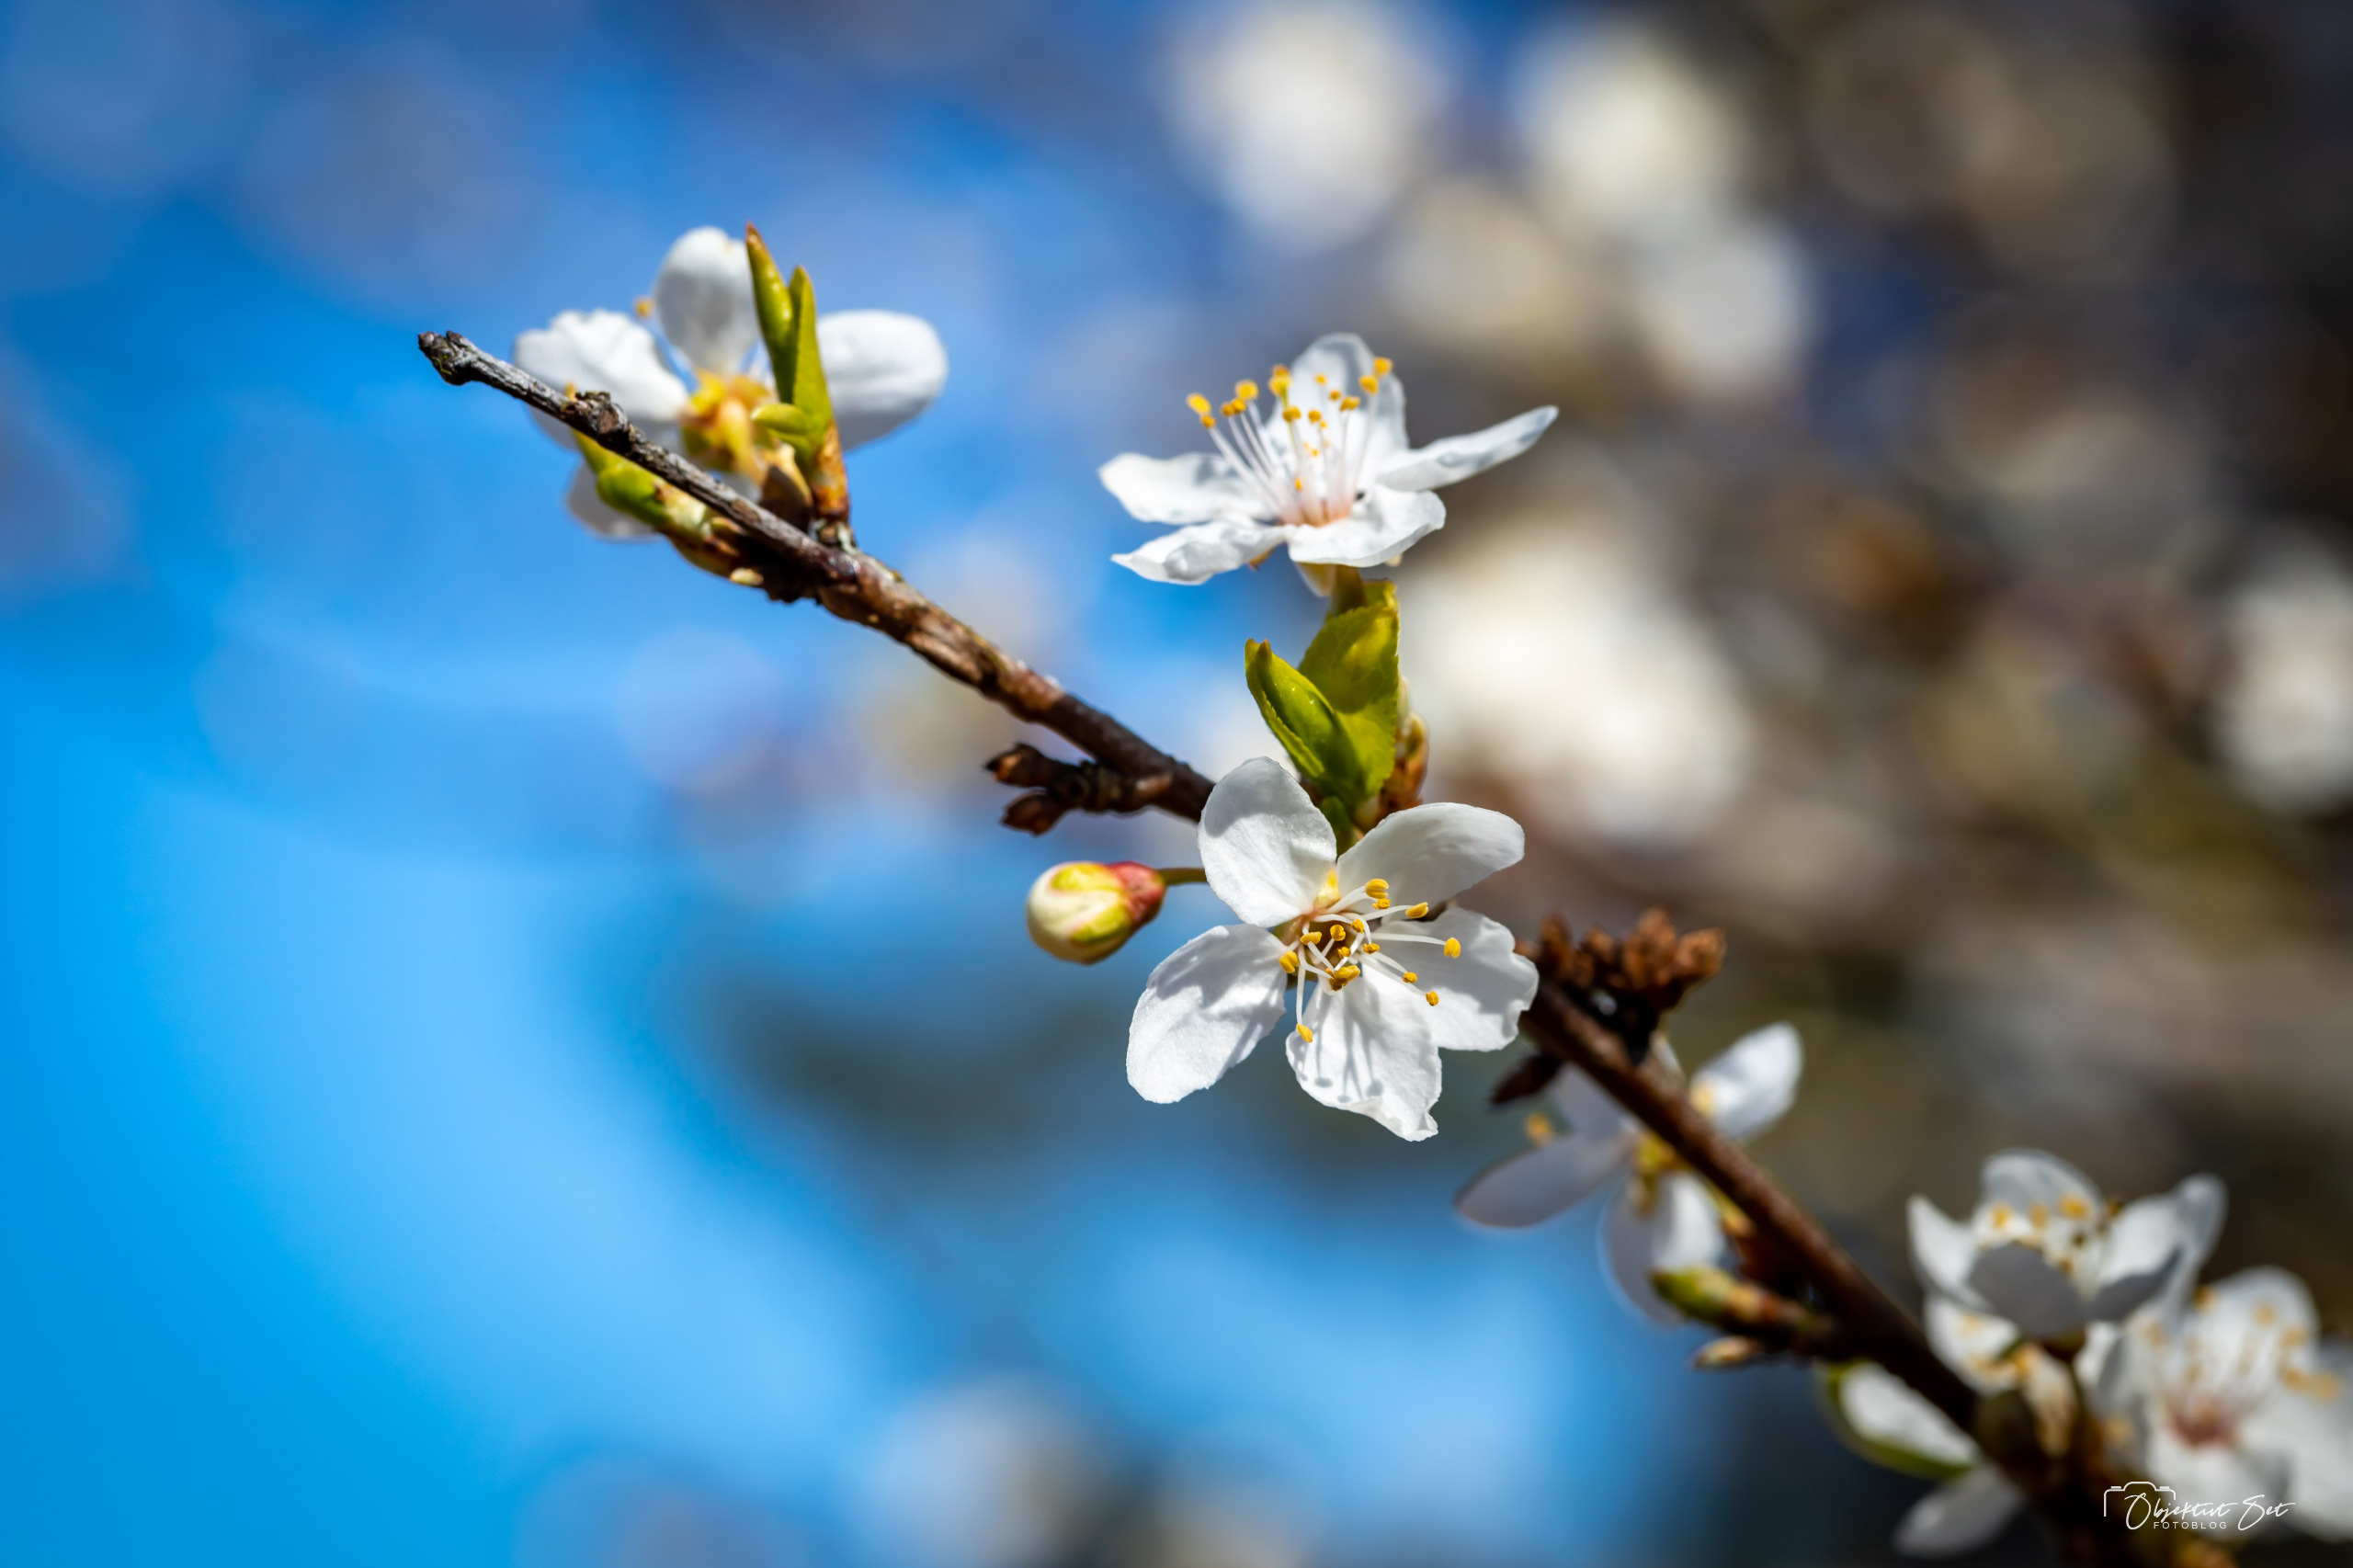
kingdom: Plantae
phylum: Tracheophyta
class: Magnoliopsida
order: Rosales
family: Rosaceae
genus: Prunus
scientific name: Prunus cerasifera
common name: Mirabel
